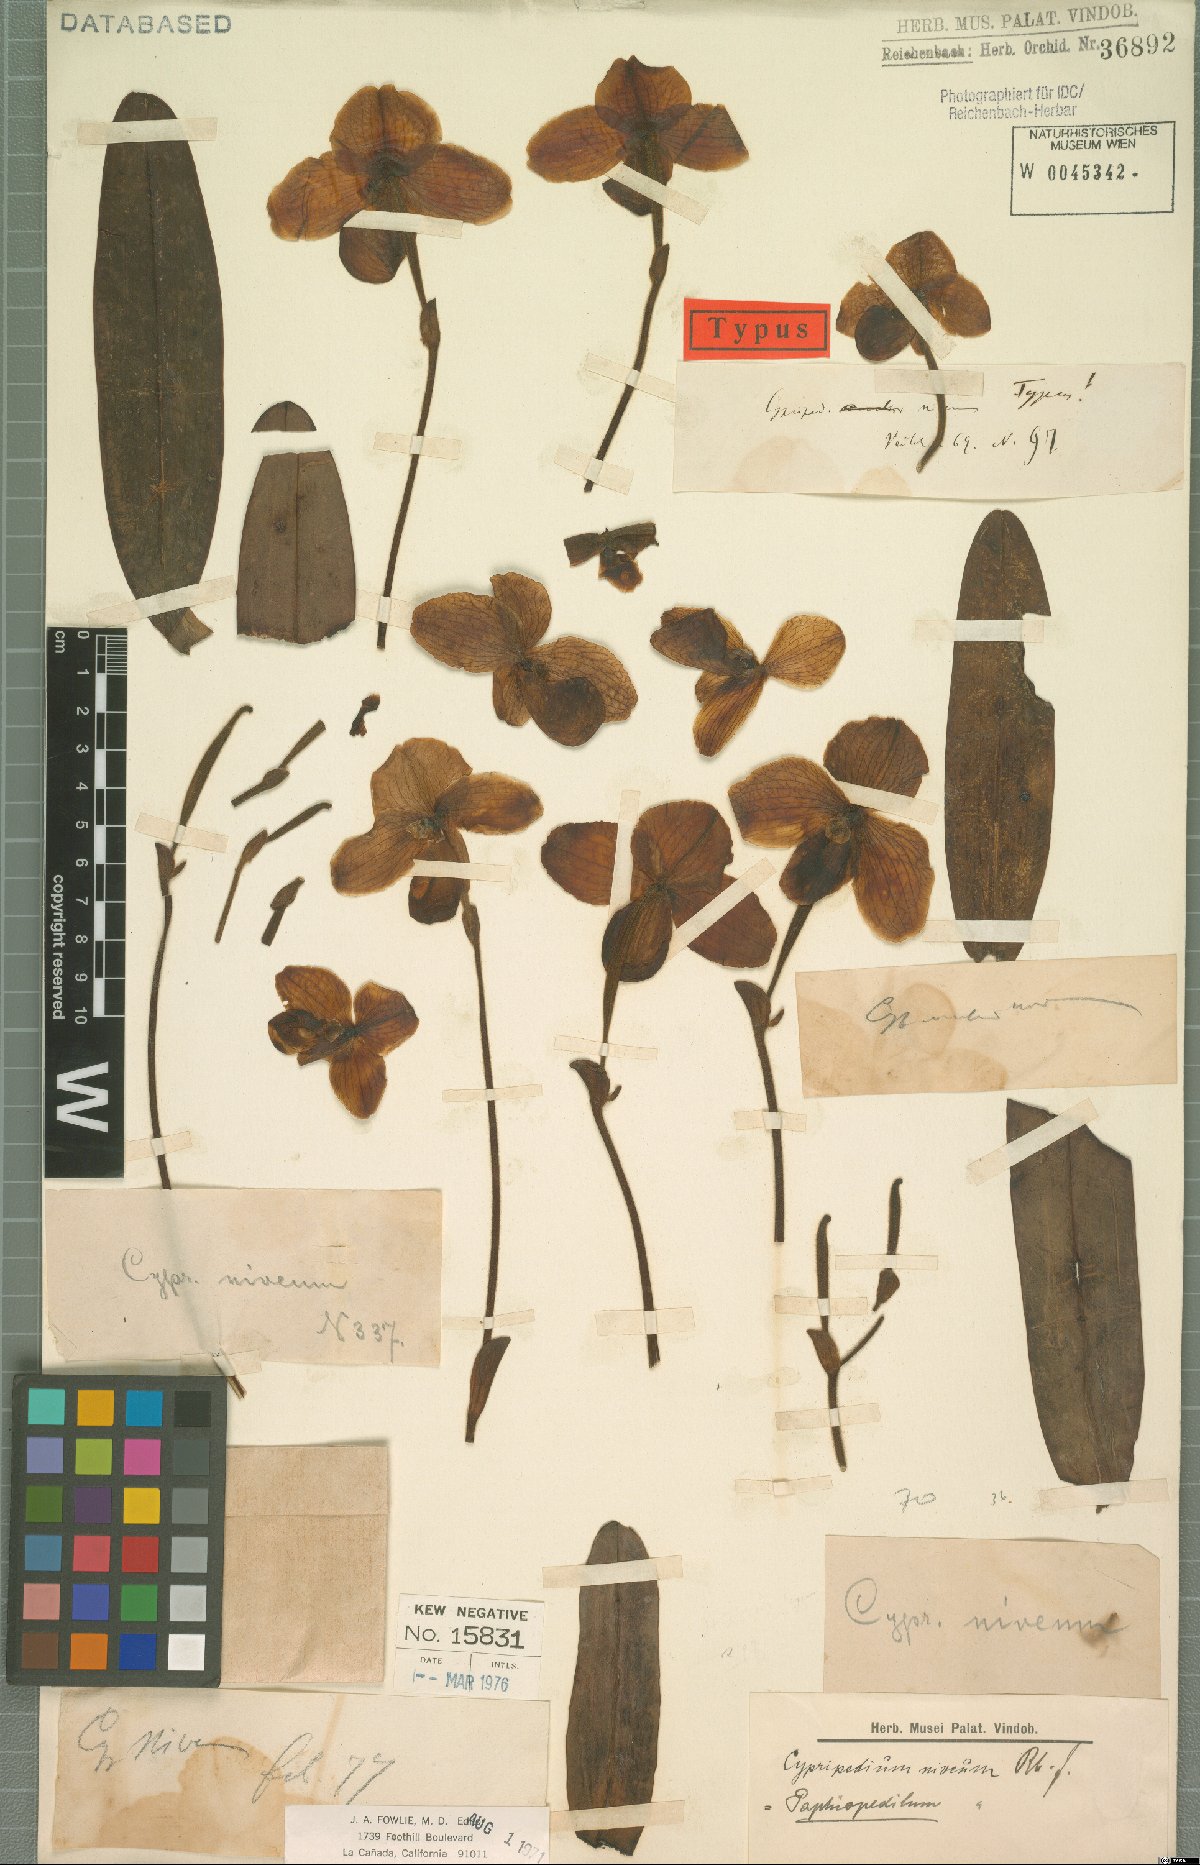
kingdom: Plantae
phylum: Tracheophyta
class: Liliopsida
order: Asparagales
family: Orchidaceae
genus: Paphiopedilum
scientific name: Paphiopedilum niveum
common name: Snow-white paphiopedilum
